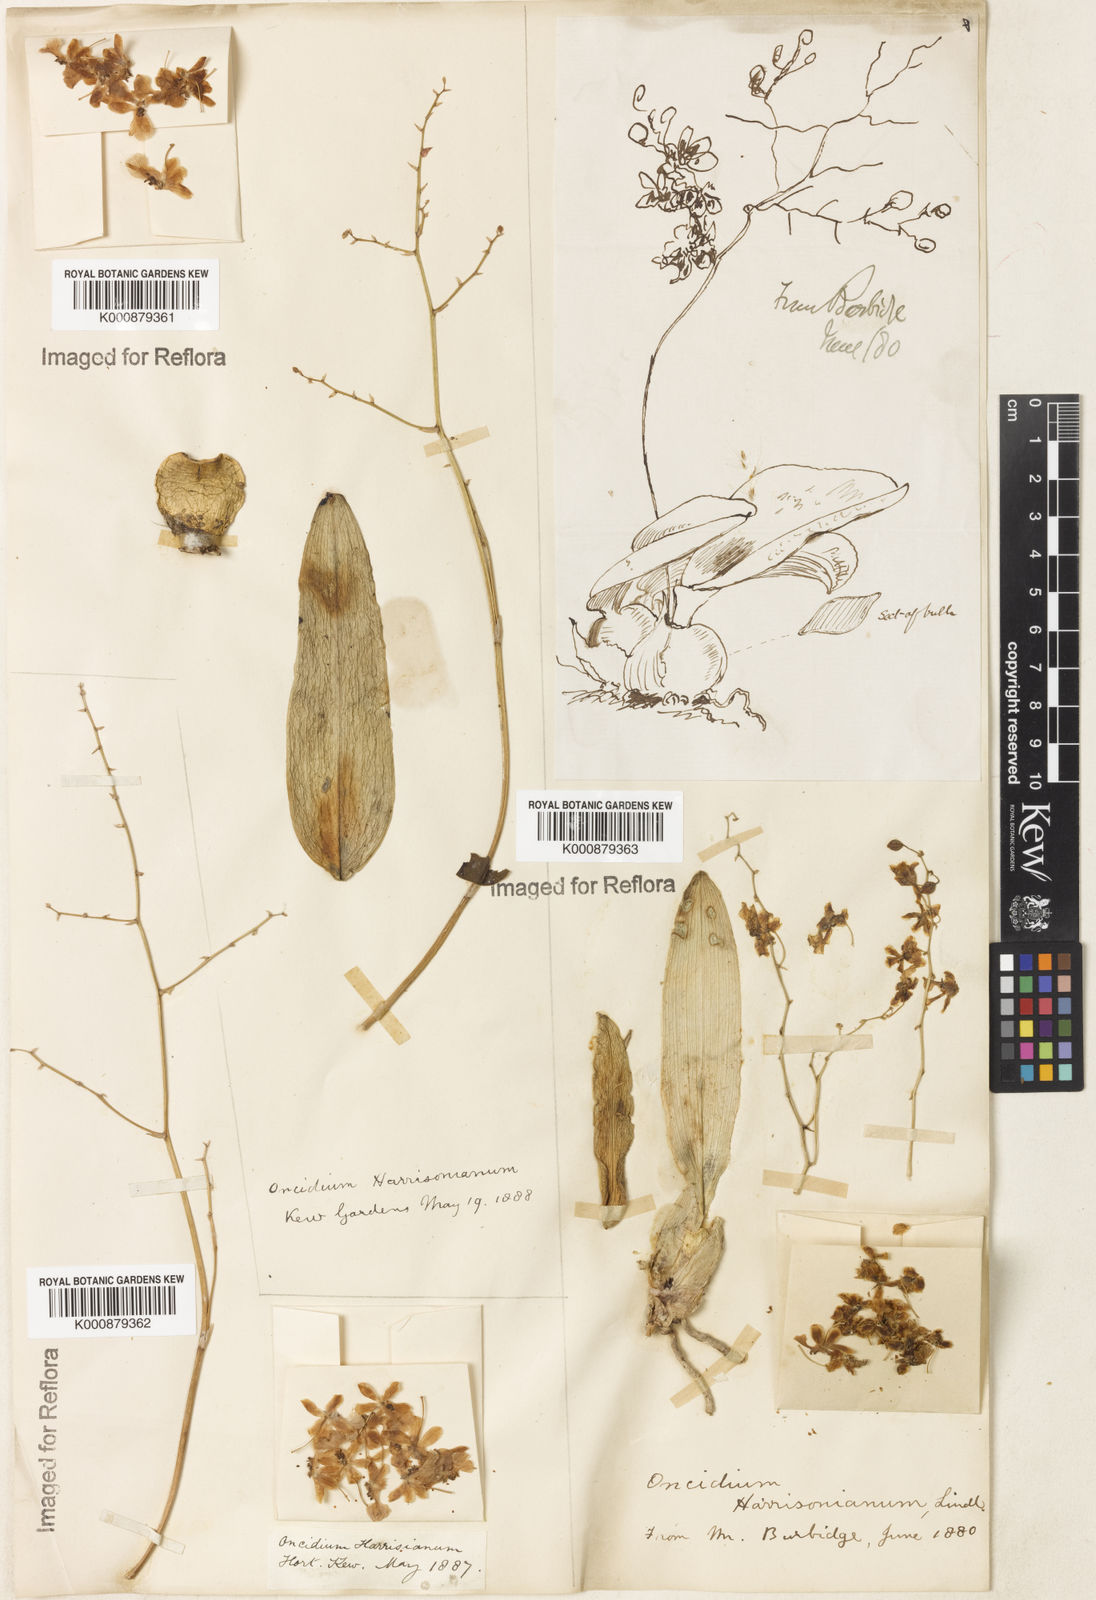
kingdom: Plantae
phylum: Tracheophyta
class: Liliopsida
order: Asparagales
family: Orchidaceae
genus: Grandiphyllum
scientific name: Grandiphyllum auricula
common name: Mule-ear orchid
